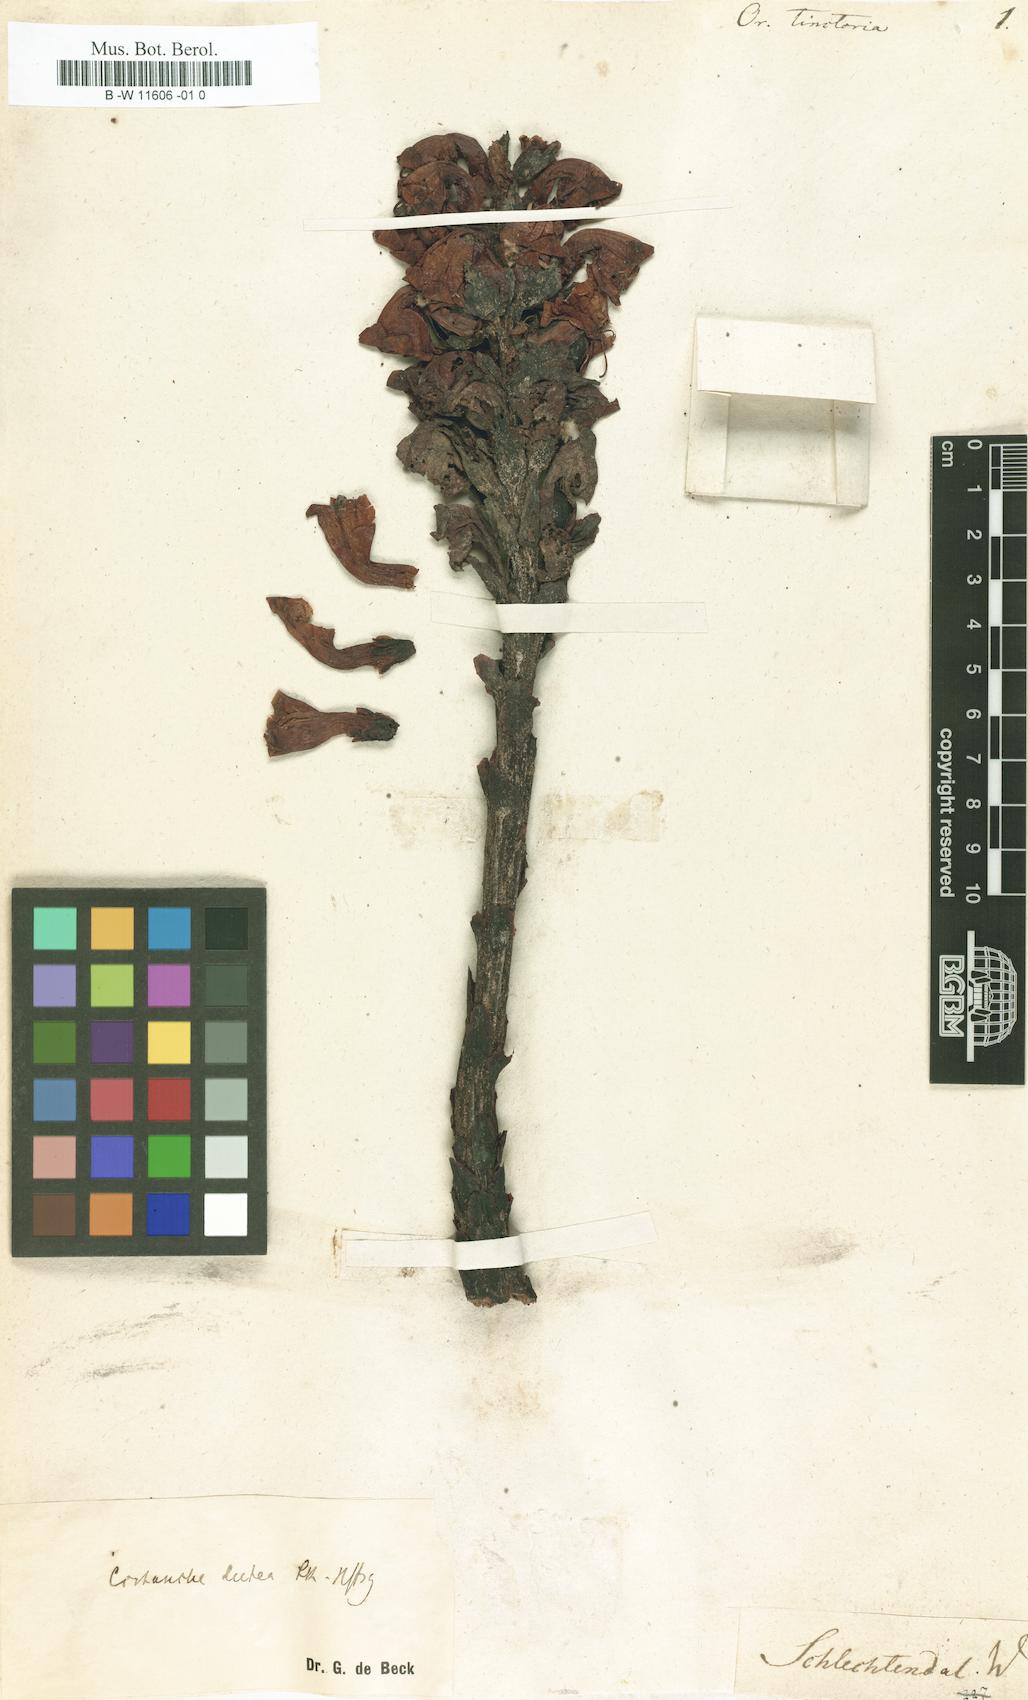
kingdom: Plantae
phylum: Tracheophyta
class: Magnoliopsida
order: Lamiales
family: Orobanchaceae
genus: Cistanche
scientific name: Cistanche tinctoria
